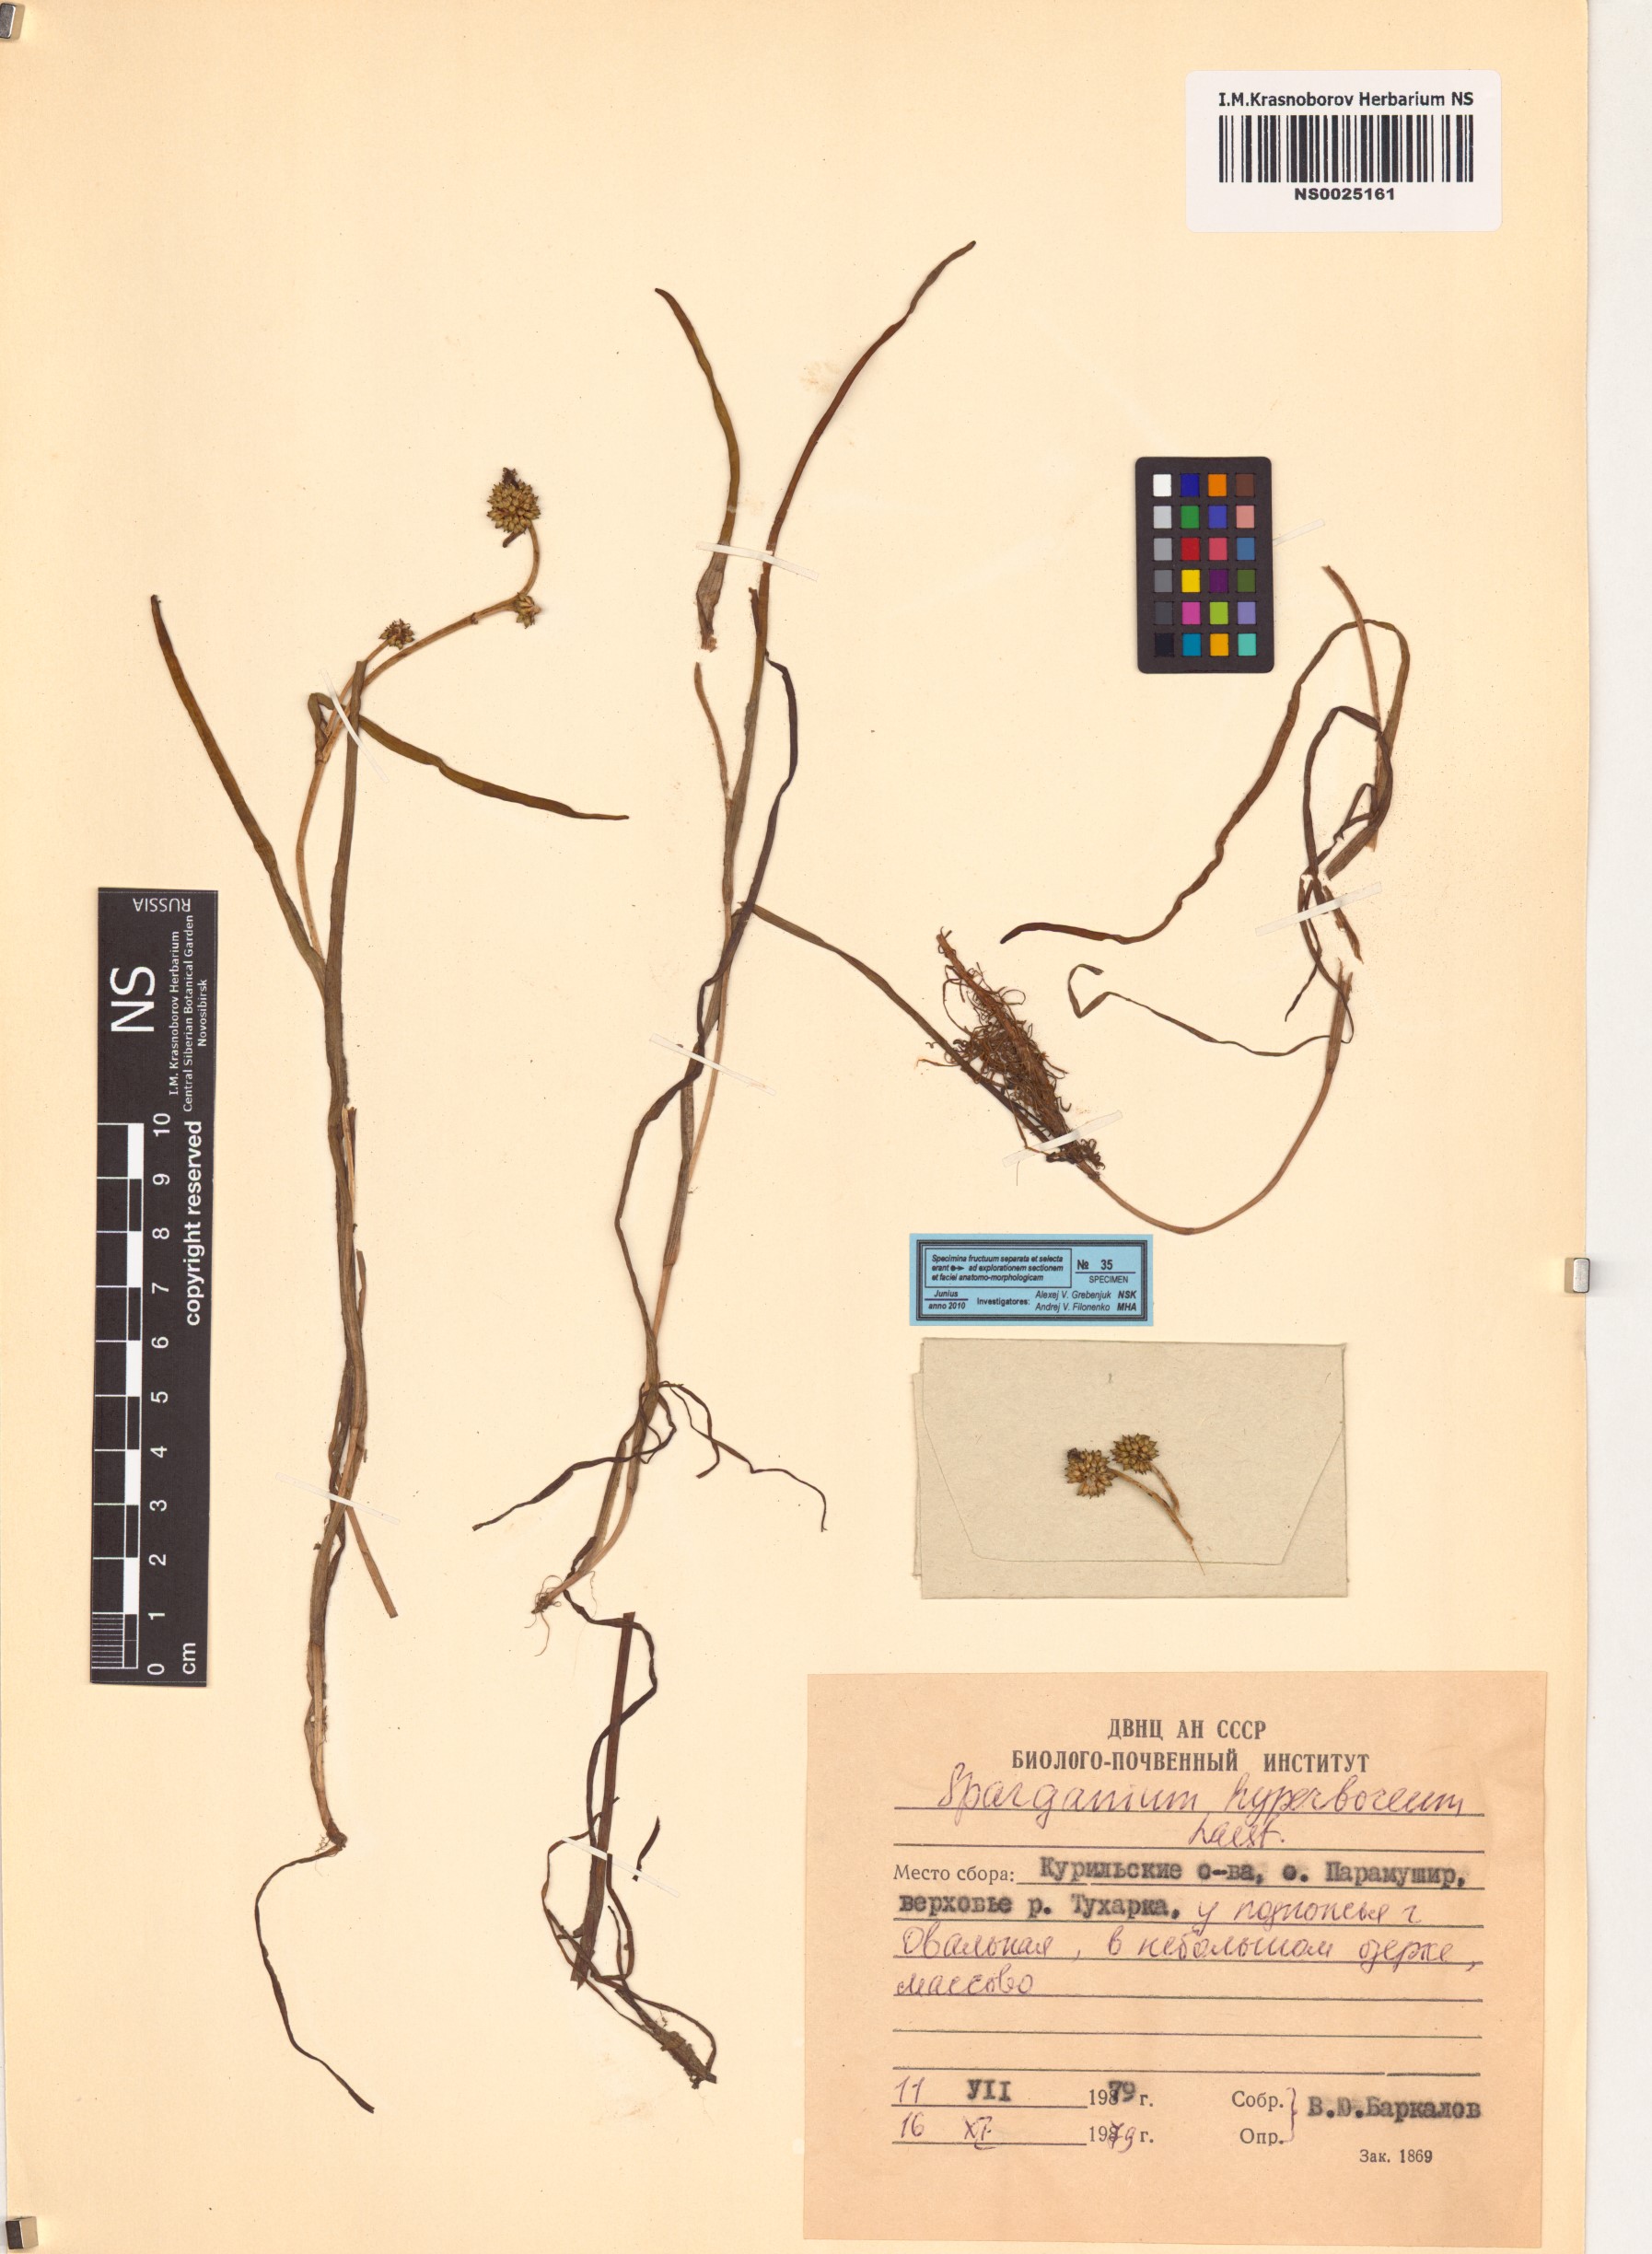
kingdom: Plantae
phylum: Tracheophyta
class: Liliopsida
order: Poales
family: Typhaceae
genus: Sparganium
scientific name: Sparganium hyperboreum
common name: Arctic burreed
